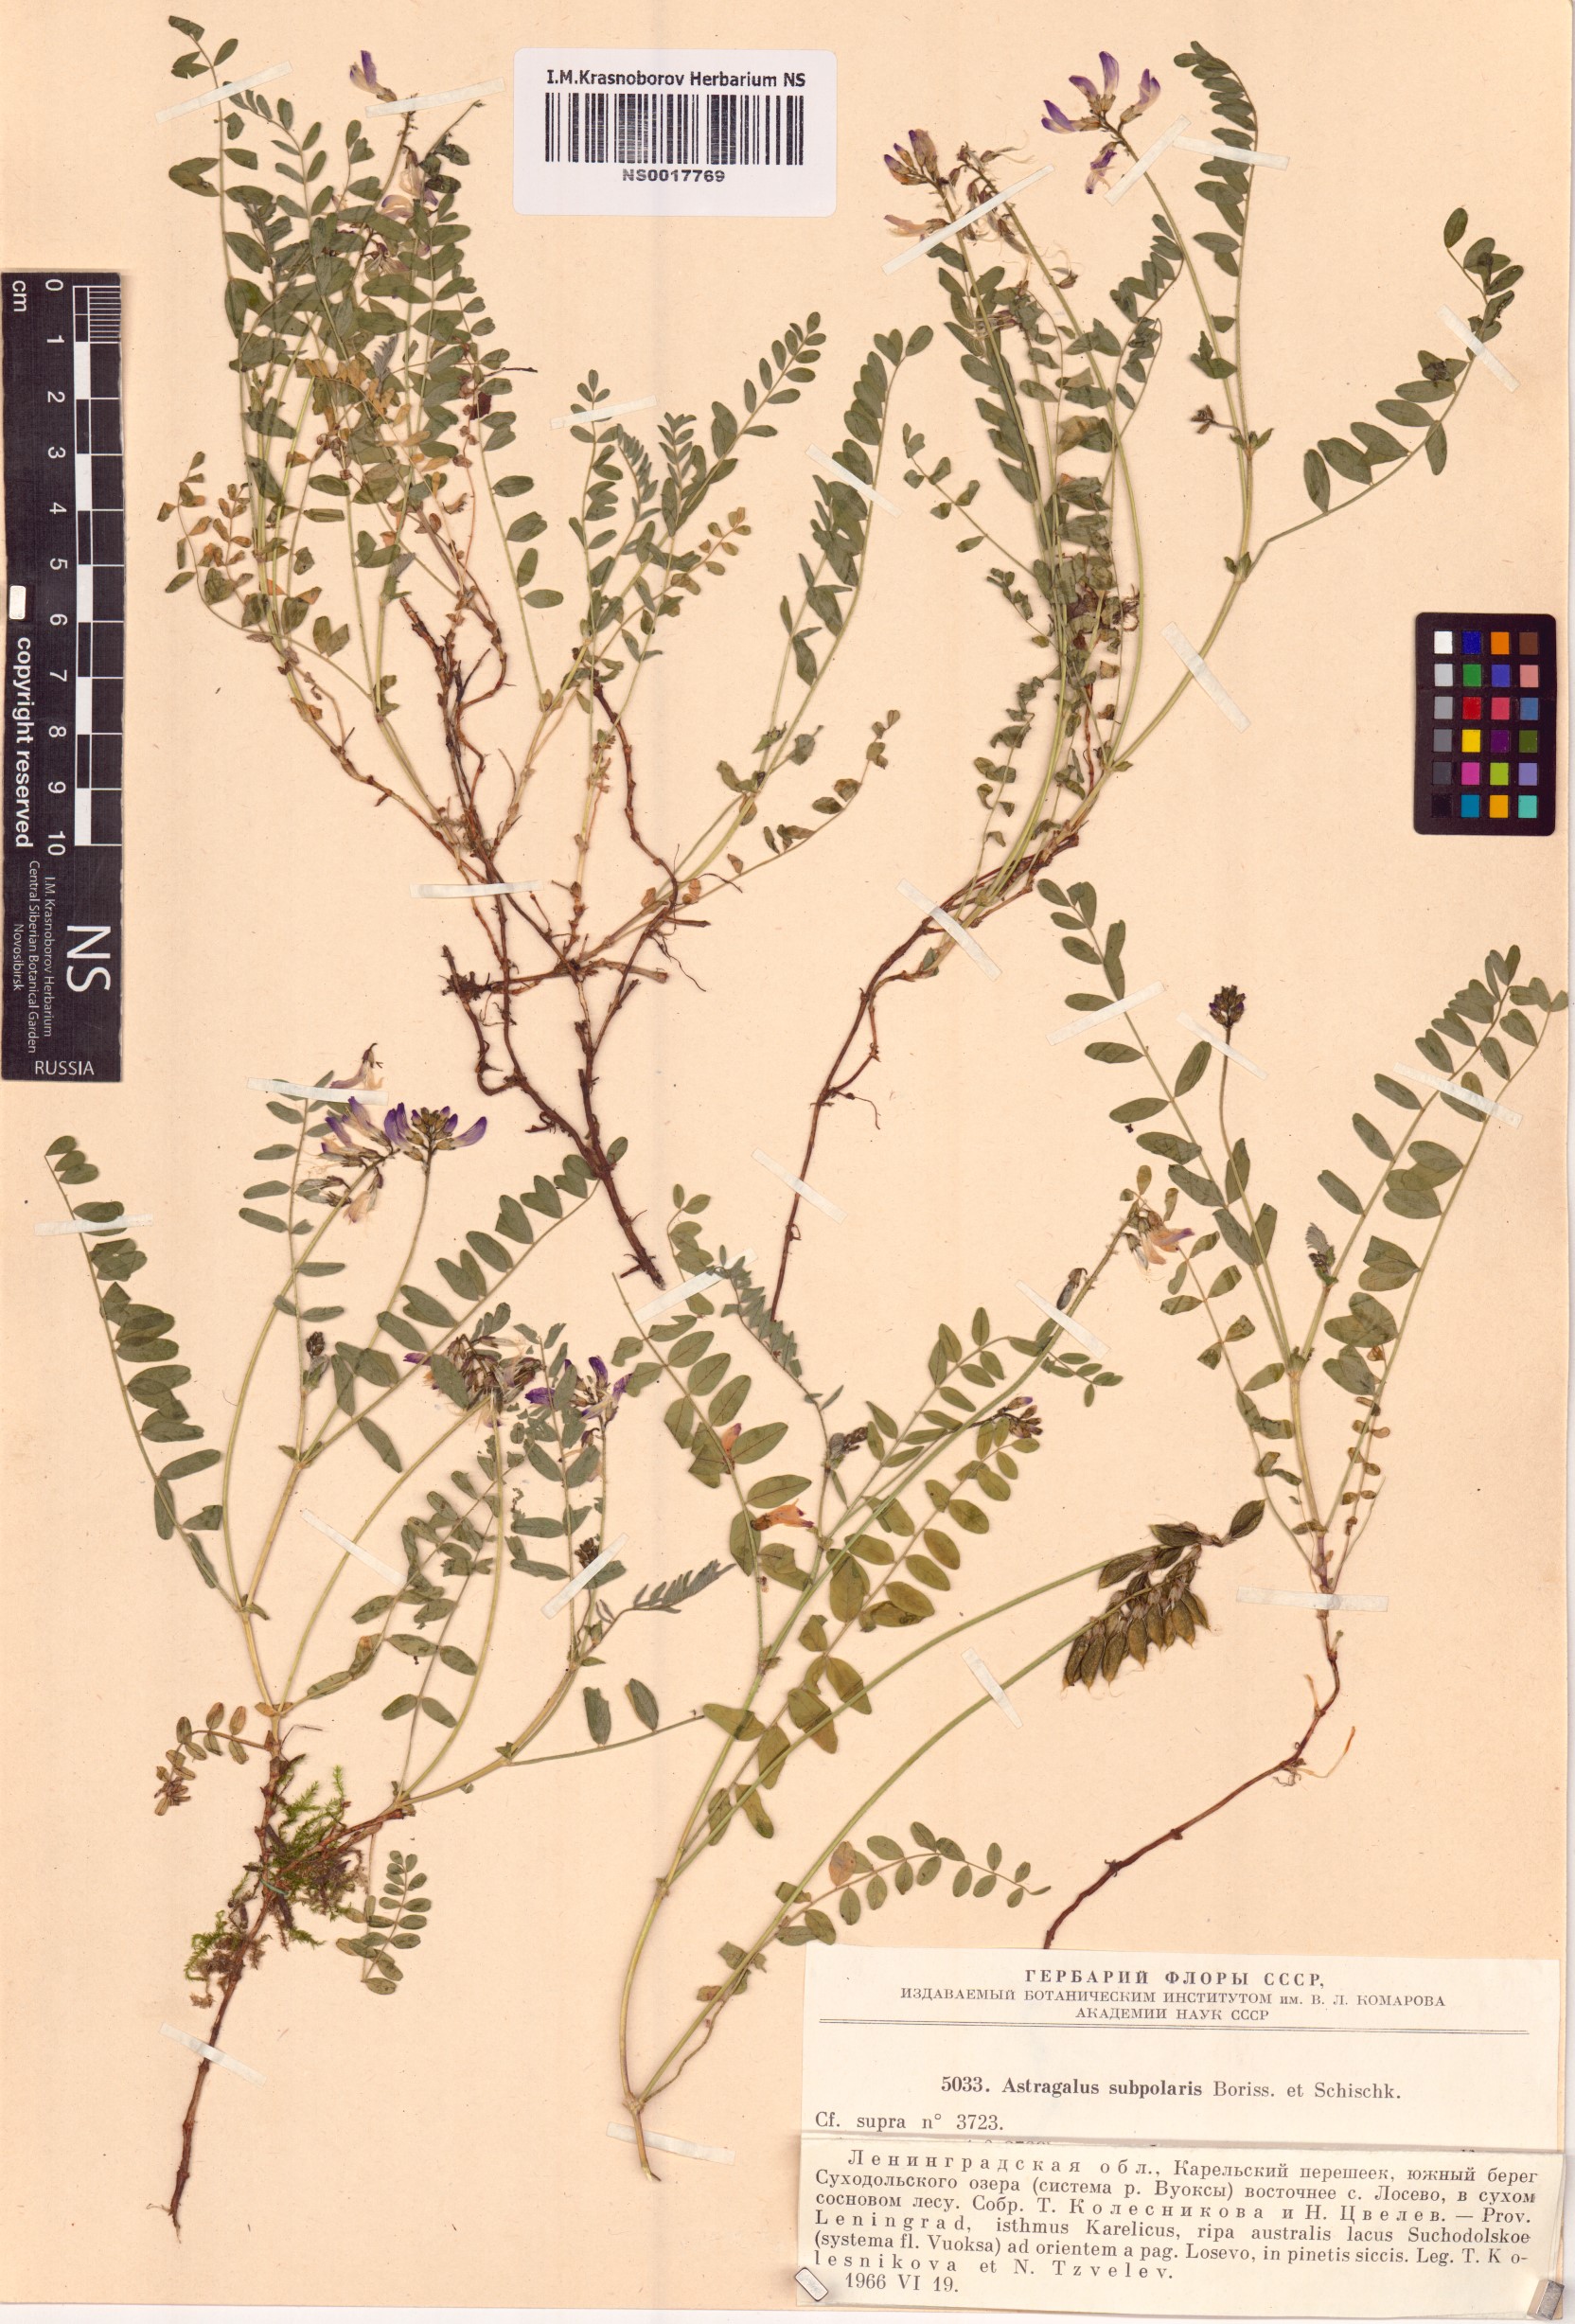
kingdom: Plantae
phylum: Tracheophyta
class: Magnoliopsida
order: Fabales
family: Fabaceae
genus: Astragalus
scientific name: Astragalus norvegicus
